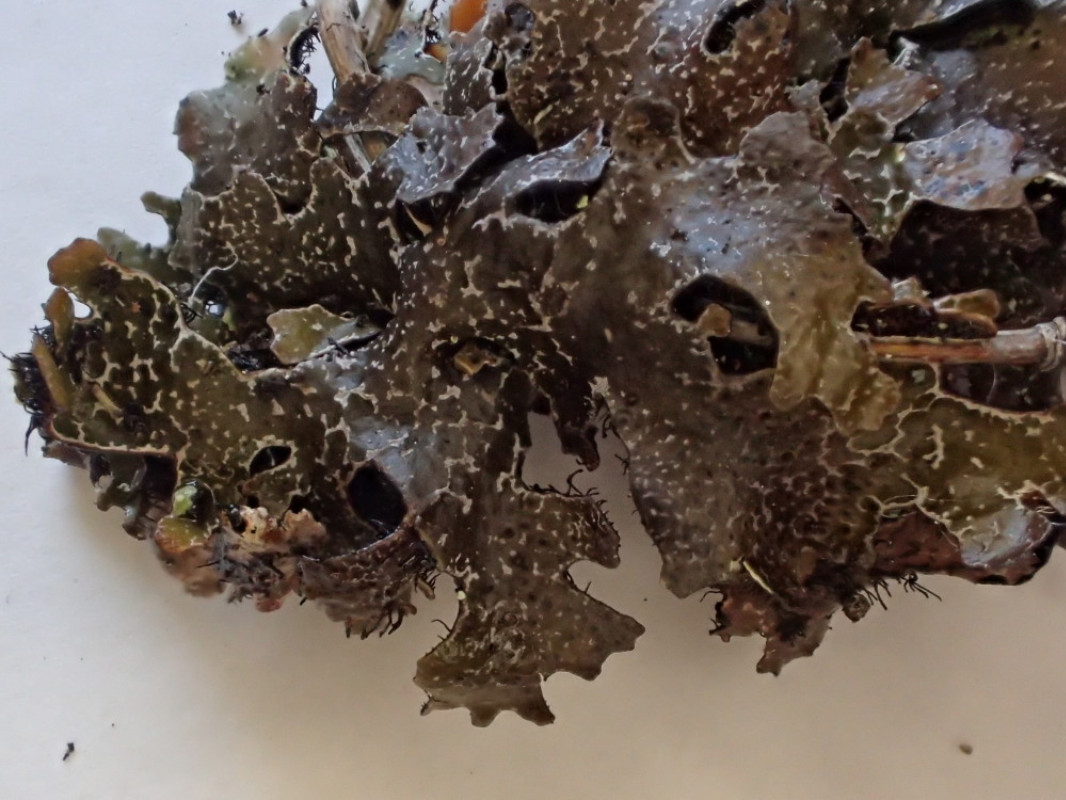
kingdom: Fungi
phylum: Ascomycota
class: Lecanoromycetes
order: Lecanorales
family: Parmeliaceae
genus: Parmelia
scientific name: Parmelia omphalodes
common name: bronze-skållav
